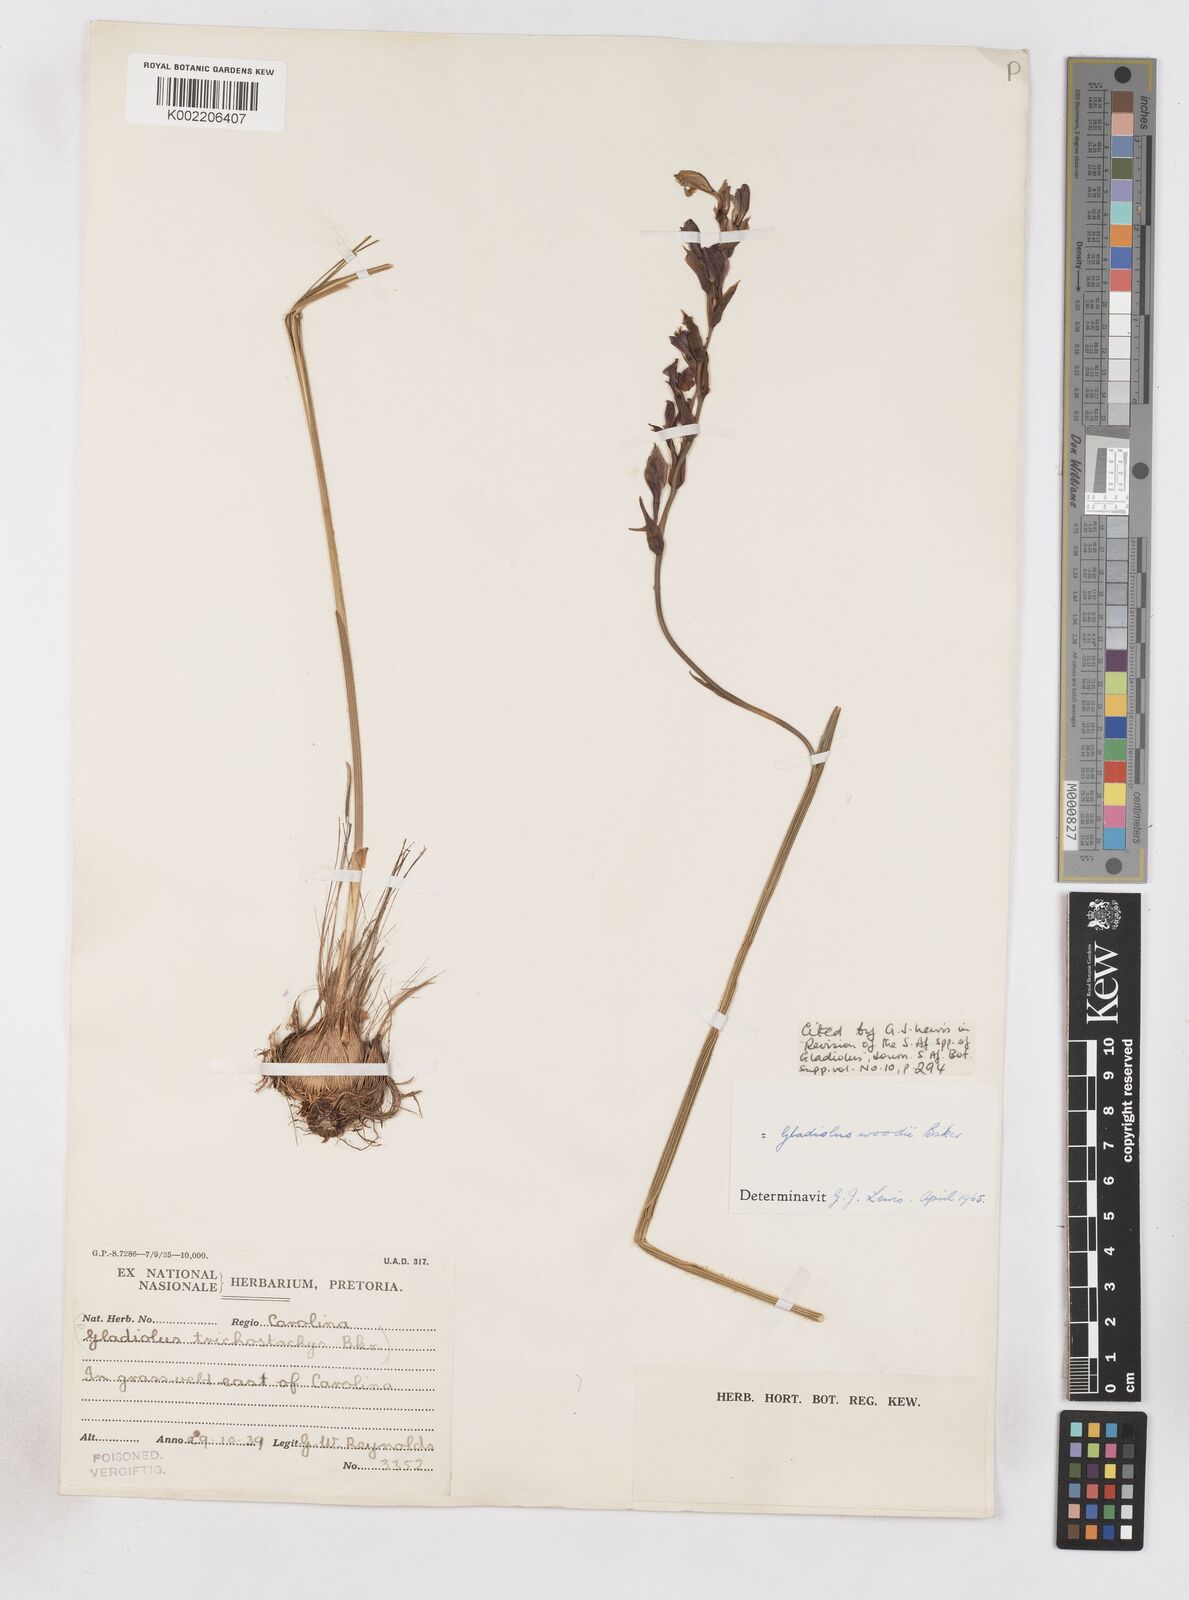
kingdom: Plantae
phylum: Tracheophyta
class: Liliopsida
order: Asparagales
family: Iridaceae
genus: Gladiolus
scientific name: Gladiolus woodii
